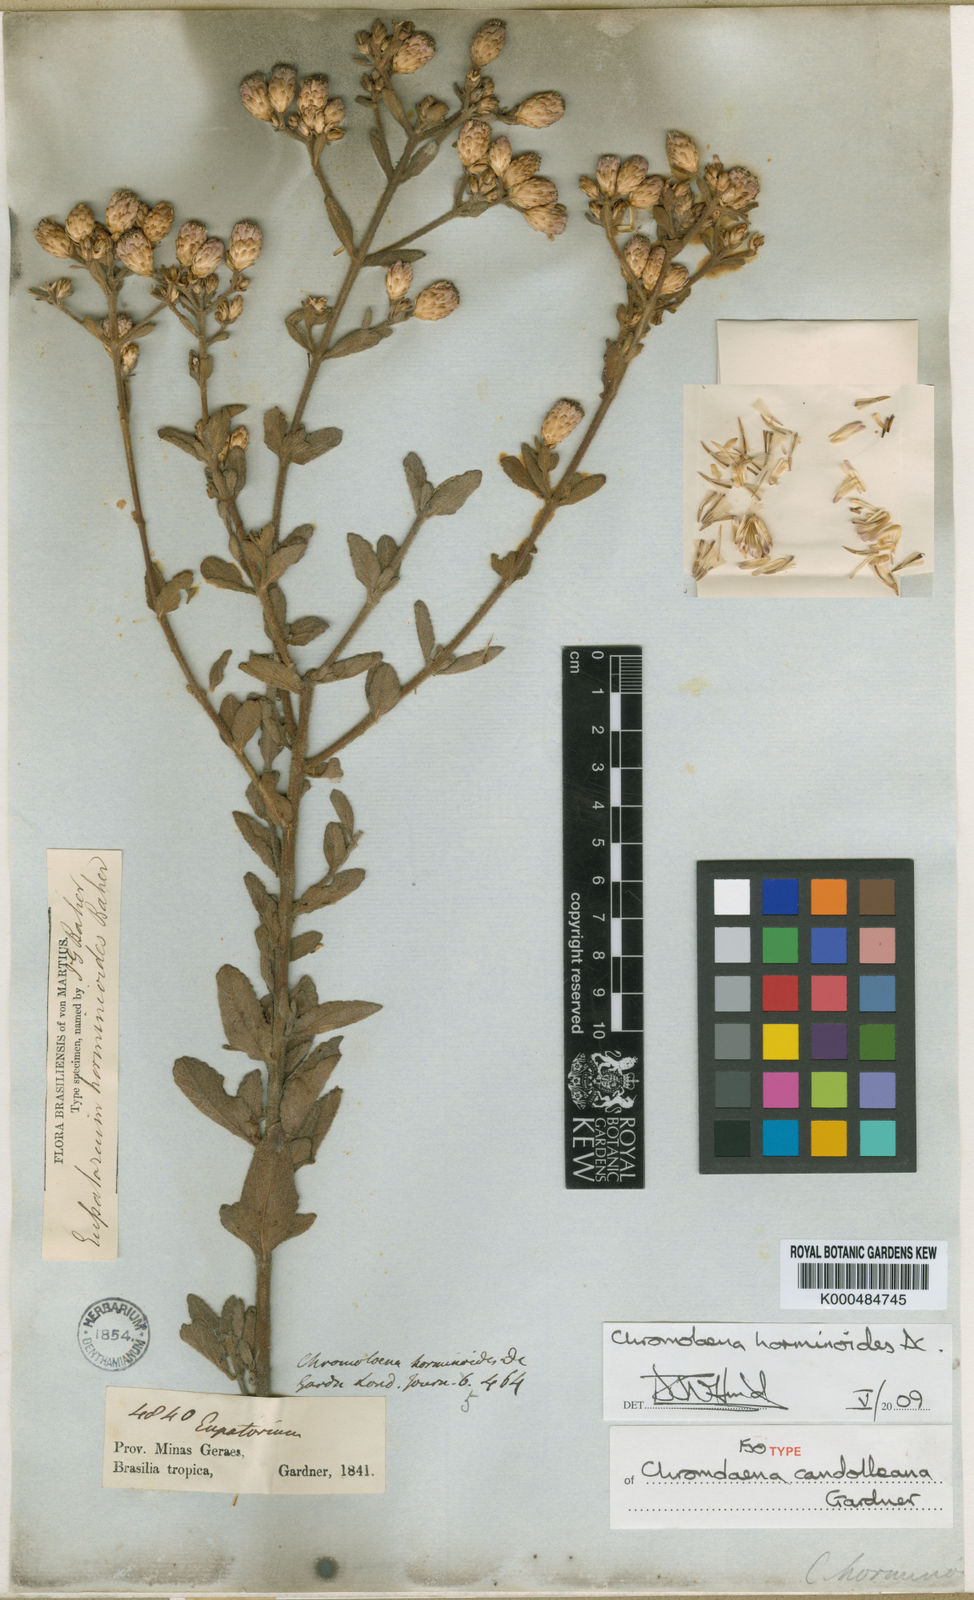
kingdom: Plantae
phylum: Tracheophyta
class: Magnoliopsida
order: Asterales
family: Asteraceae
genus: Chromolaena
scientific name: Chromolaena horminoides
